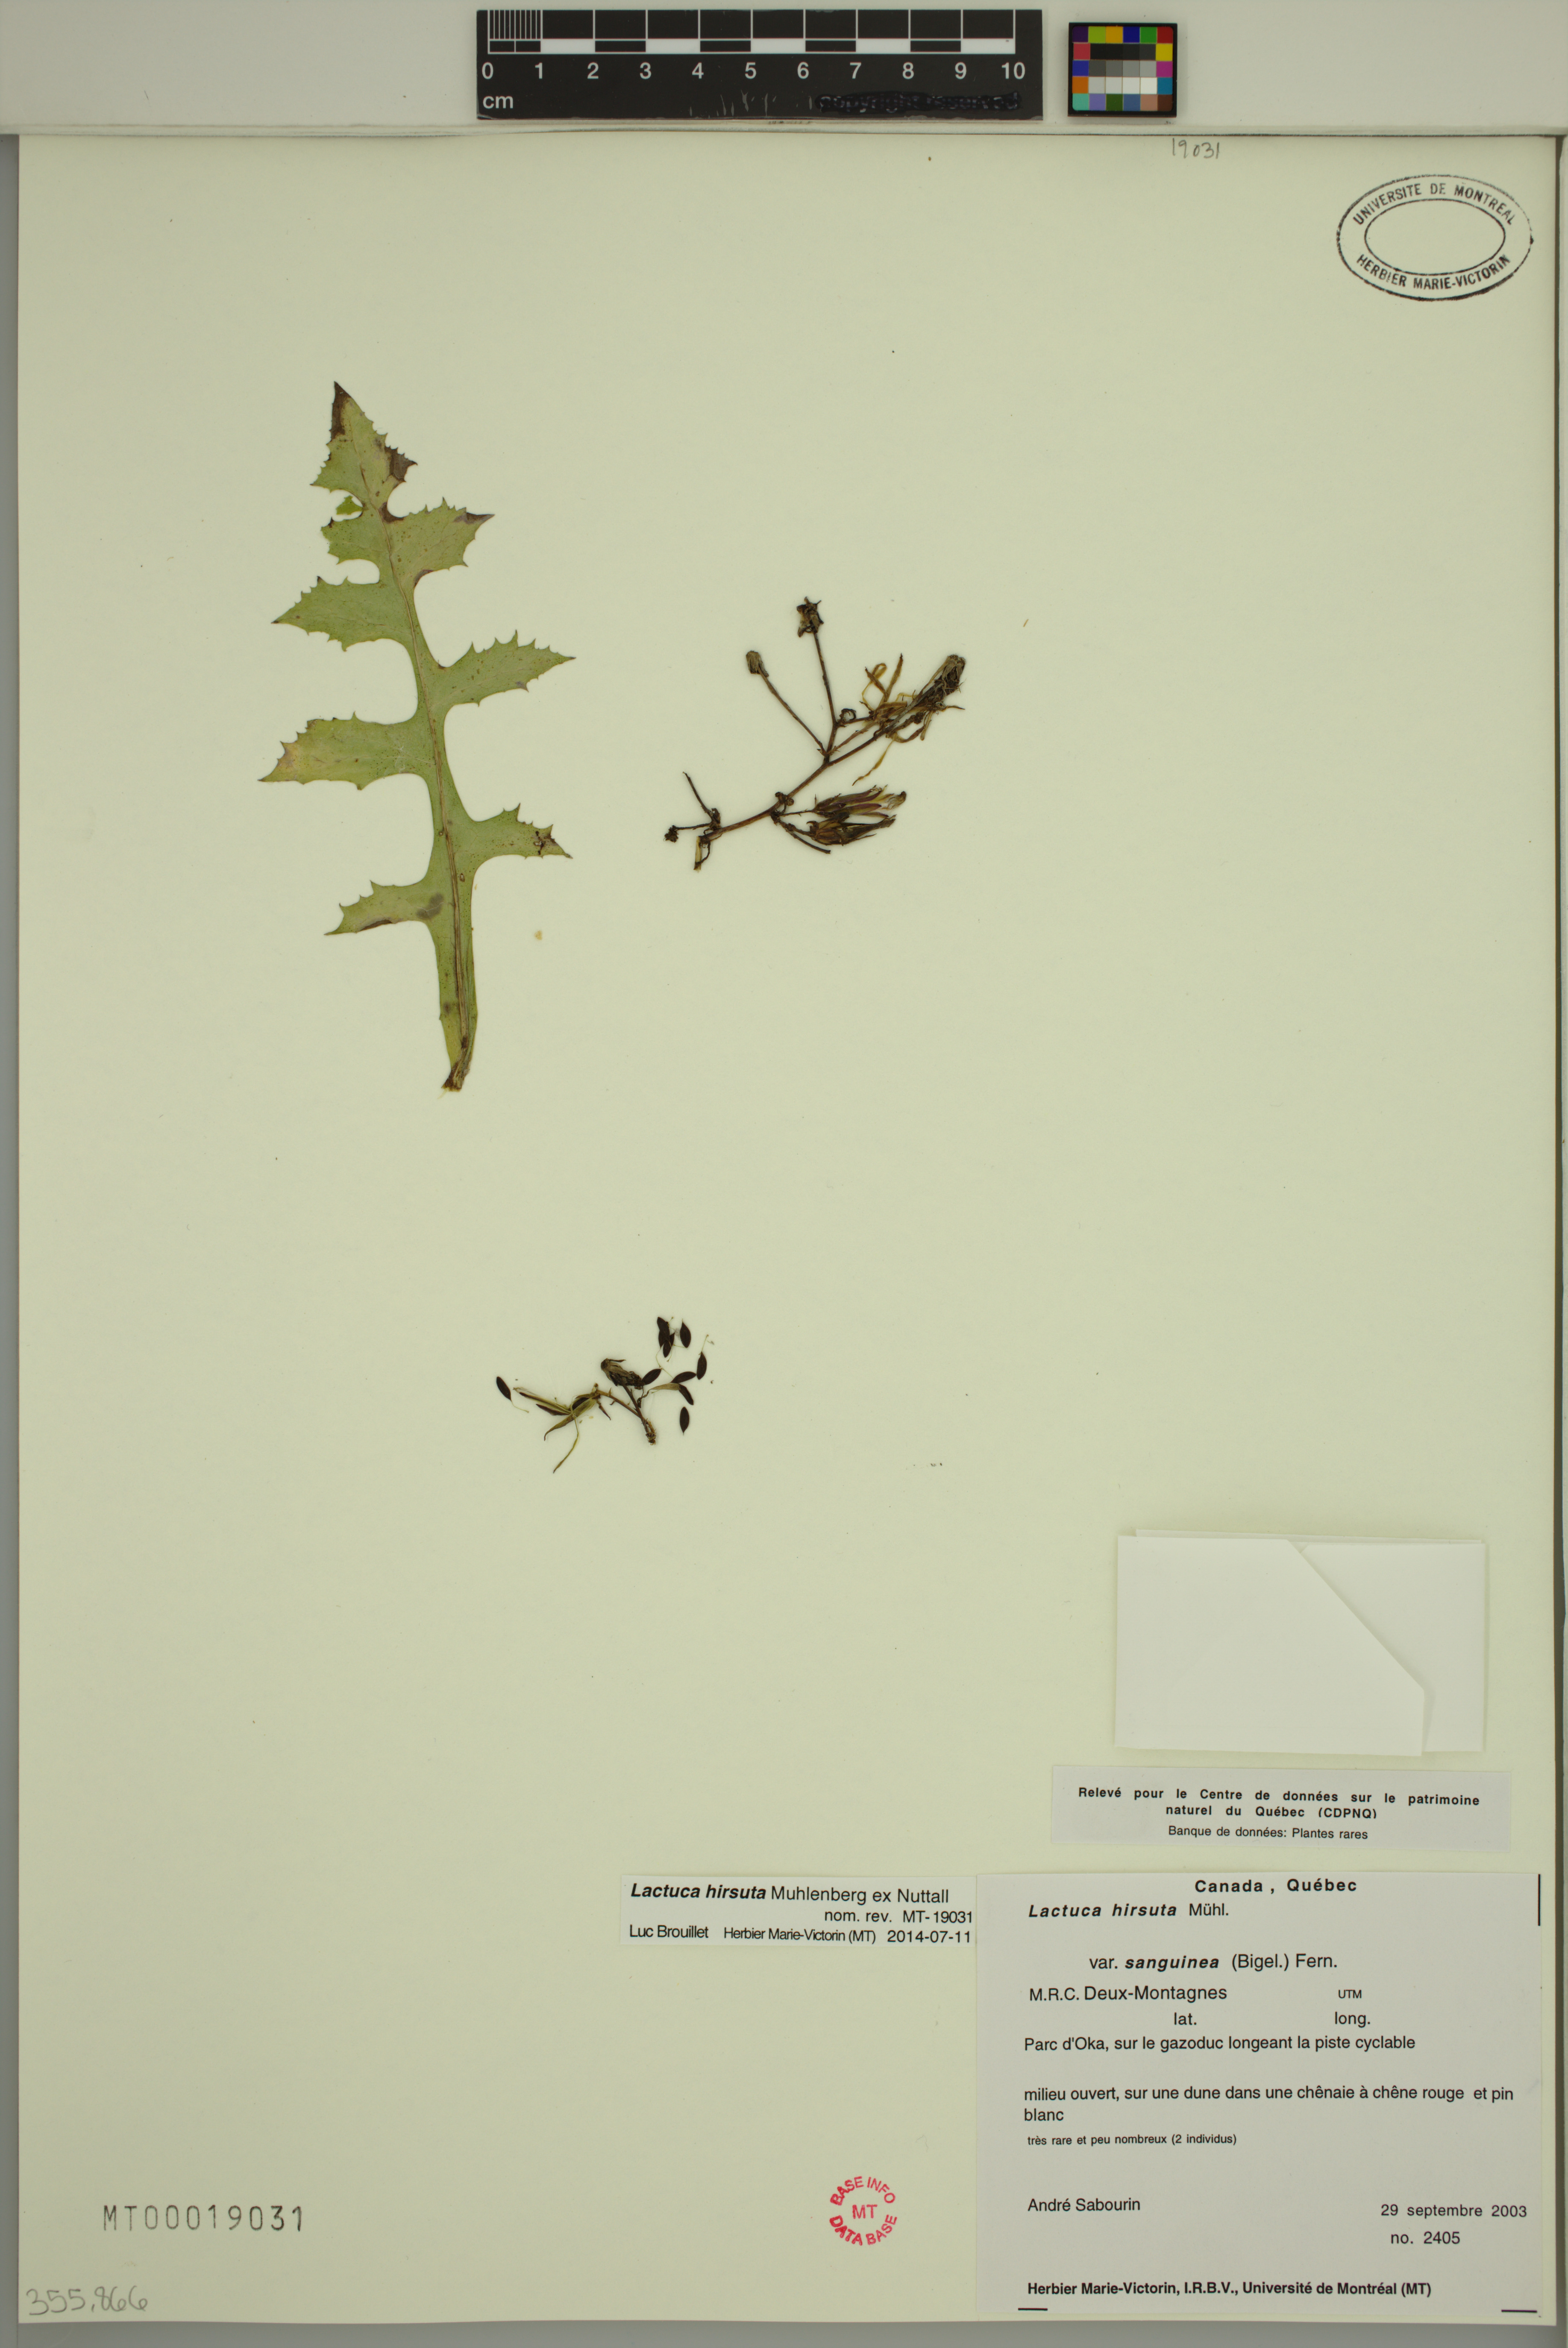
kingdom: Plantae
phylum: Tracheophyta
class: Magnoliopsida
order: Asterales
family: Asteraceae
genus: Lactuca
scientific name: Lactuca hirsuta
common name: Hairy lettuce
